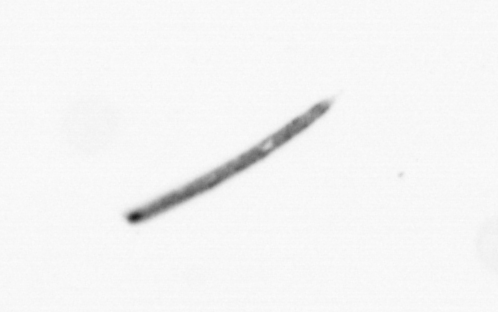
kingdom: Chromista
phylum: Ochrophyta
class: Bacillariophyceae
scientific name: Bacillariophyceae
